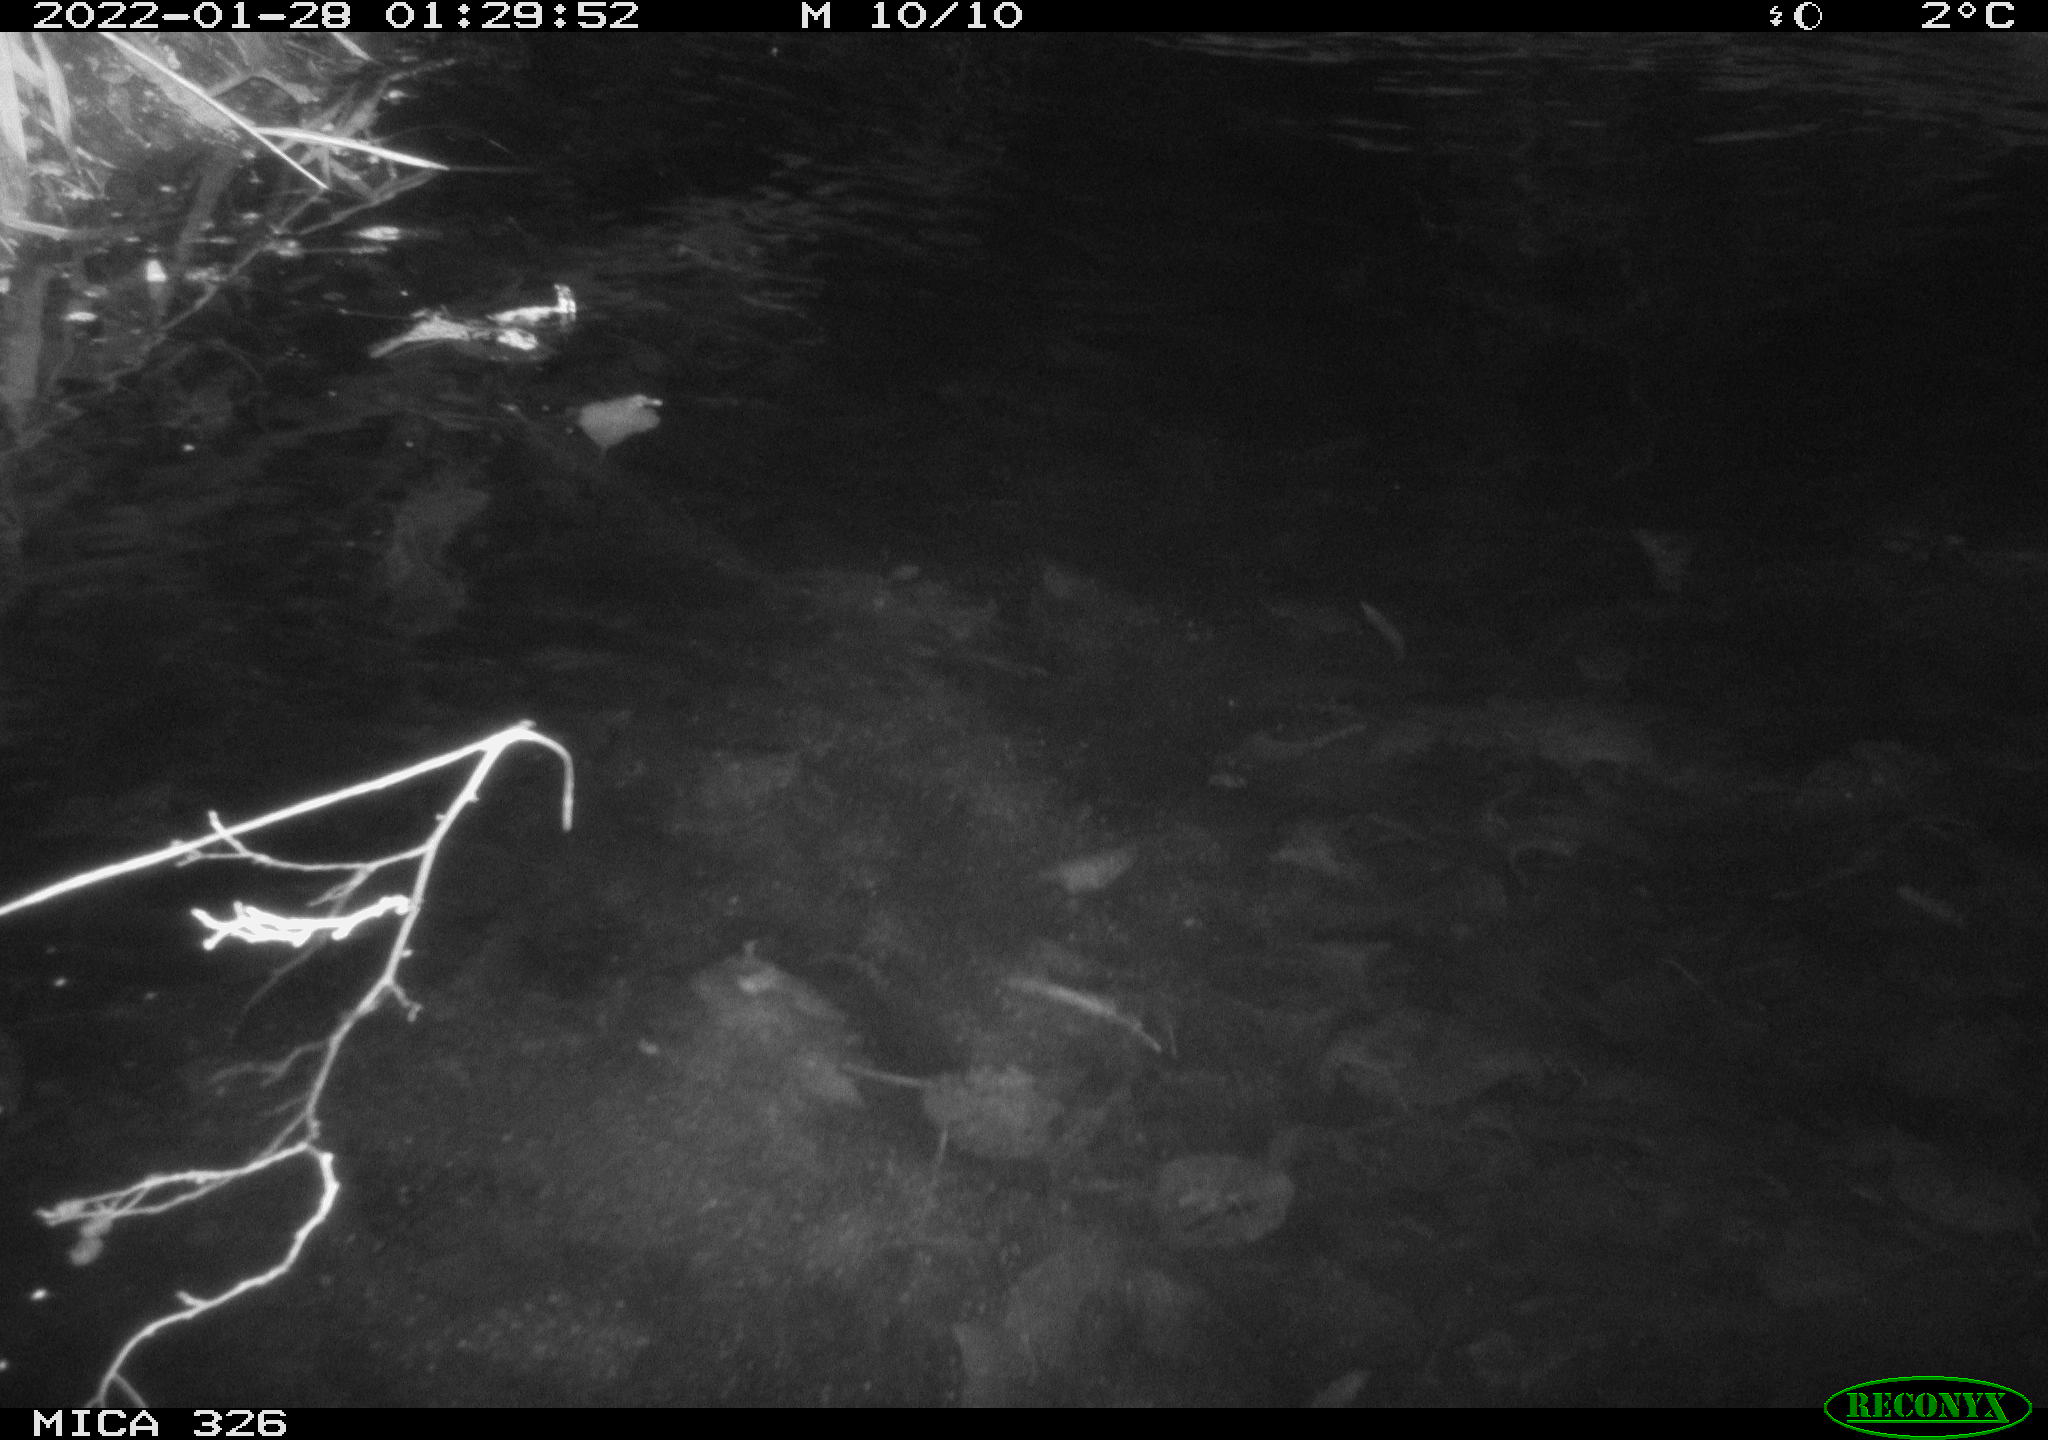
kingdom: Animalia
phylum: Chordata
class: Mammalia
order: Rodentia
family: Cricetidae
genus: Ondatra
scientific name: Ondatra zibethicus
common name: Muskrat
